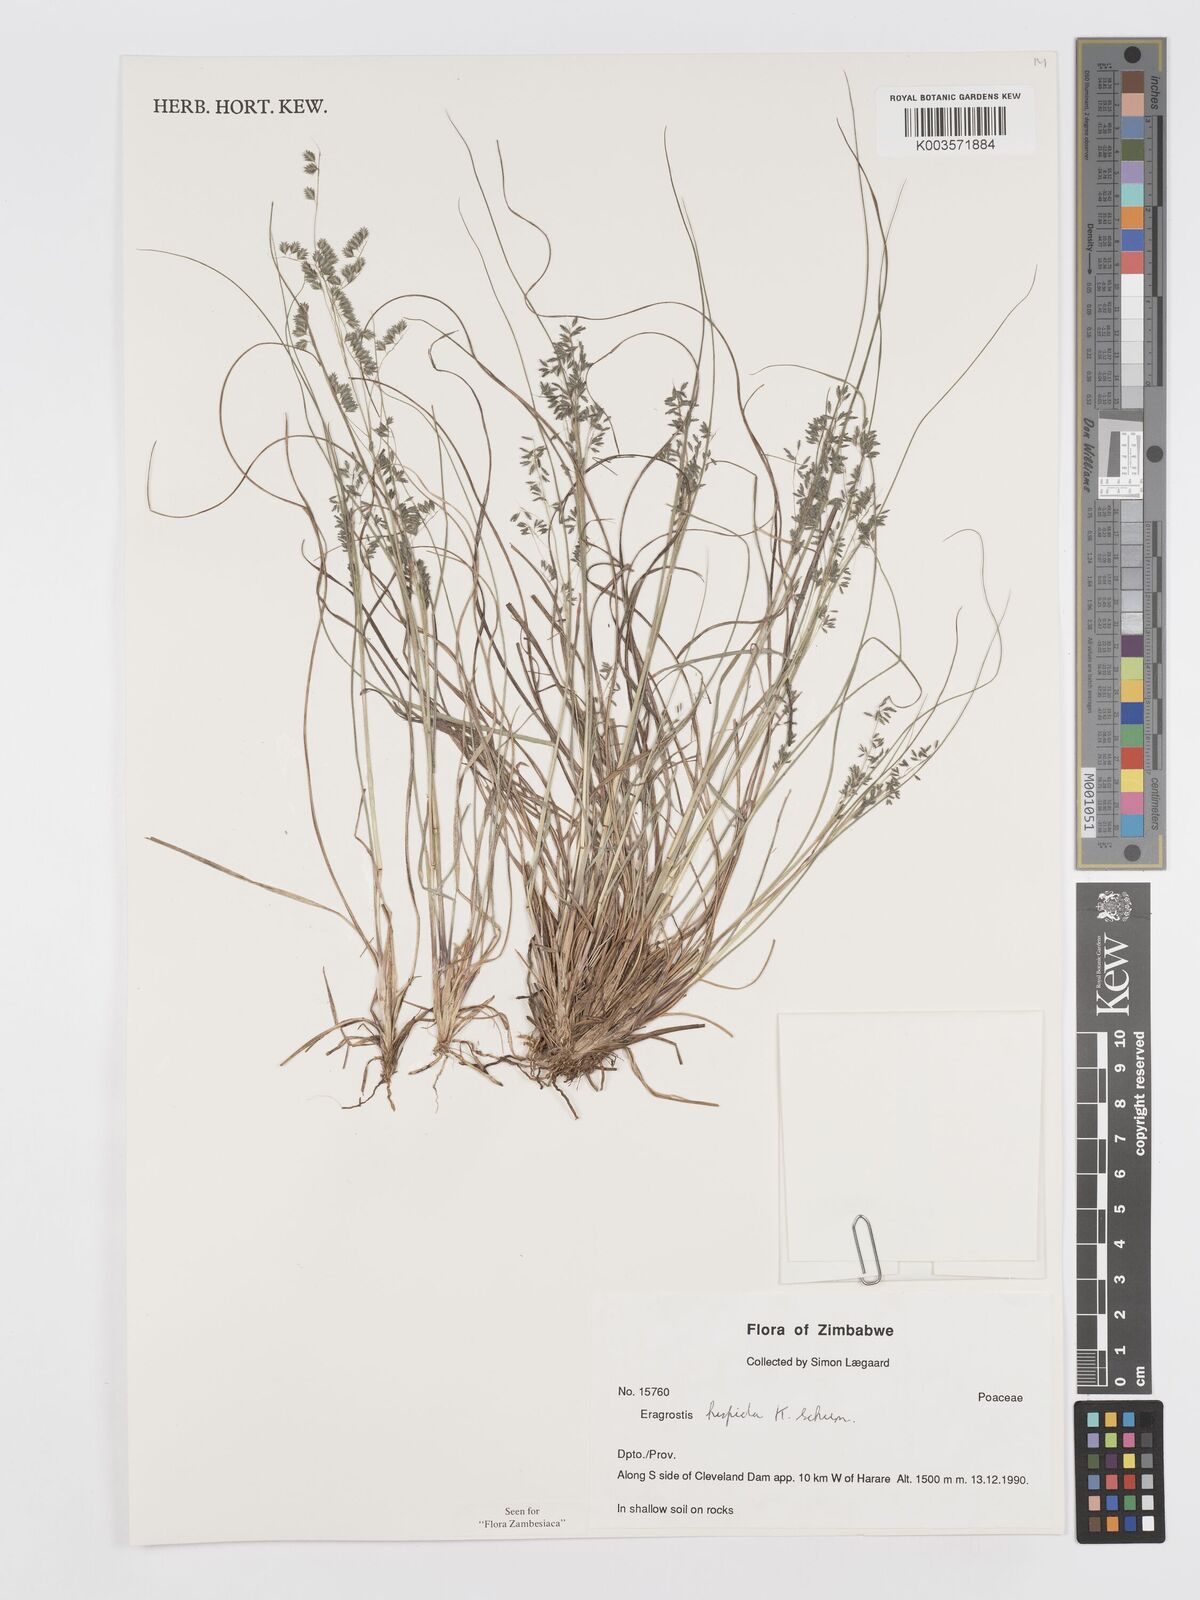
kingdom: Plantae
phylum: Tracheophyta
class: Liliopsida
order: Poales
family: Poaceae
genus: Eragrostis
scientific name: Eragrostis hispida
